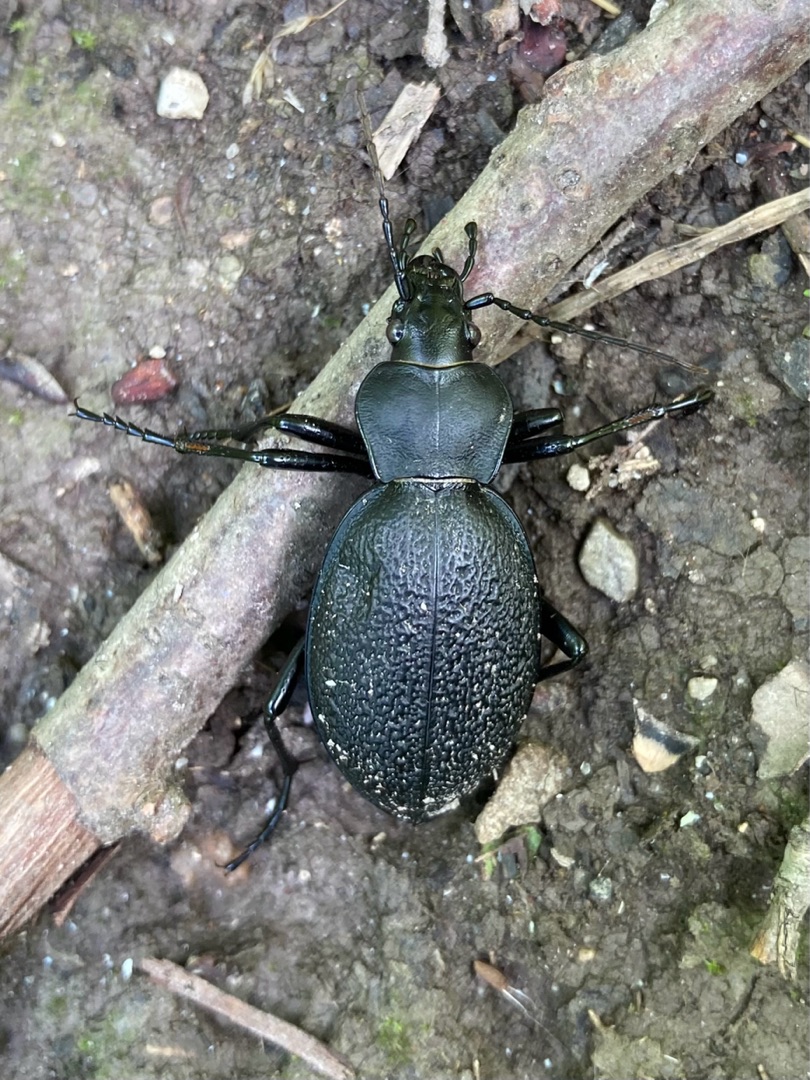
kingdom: Animalia
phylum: Arthropoda
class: Insecta
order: Coleoptera
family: Carabidae
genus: Carabus
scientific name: Carabus coriaceus
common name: Læderløber
